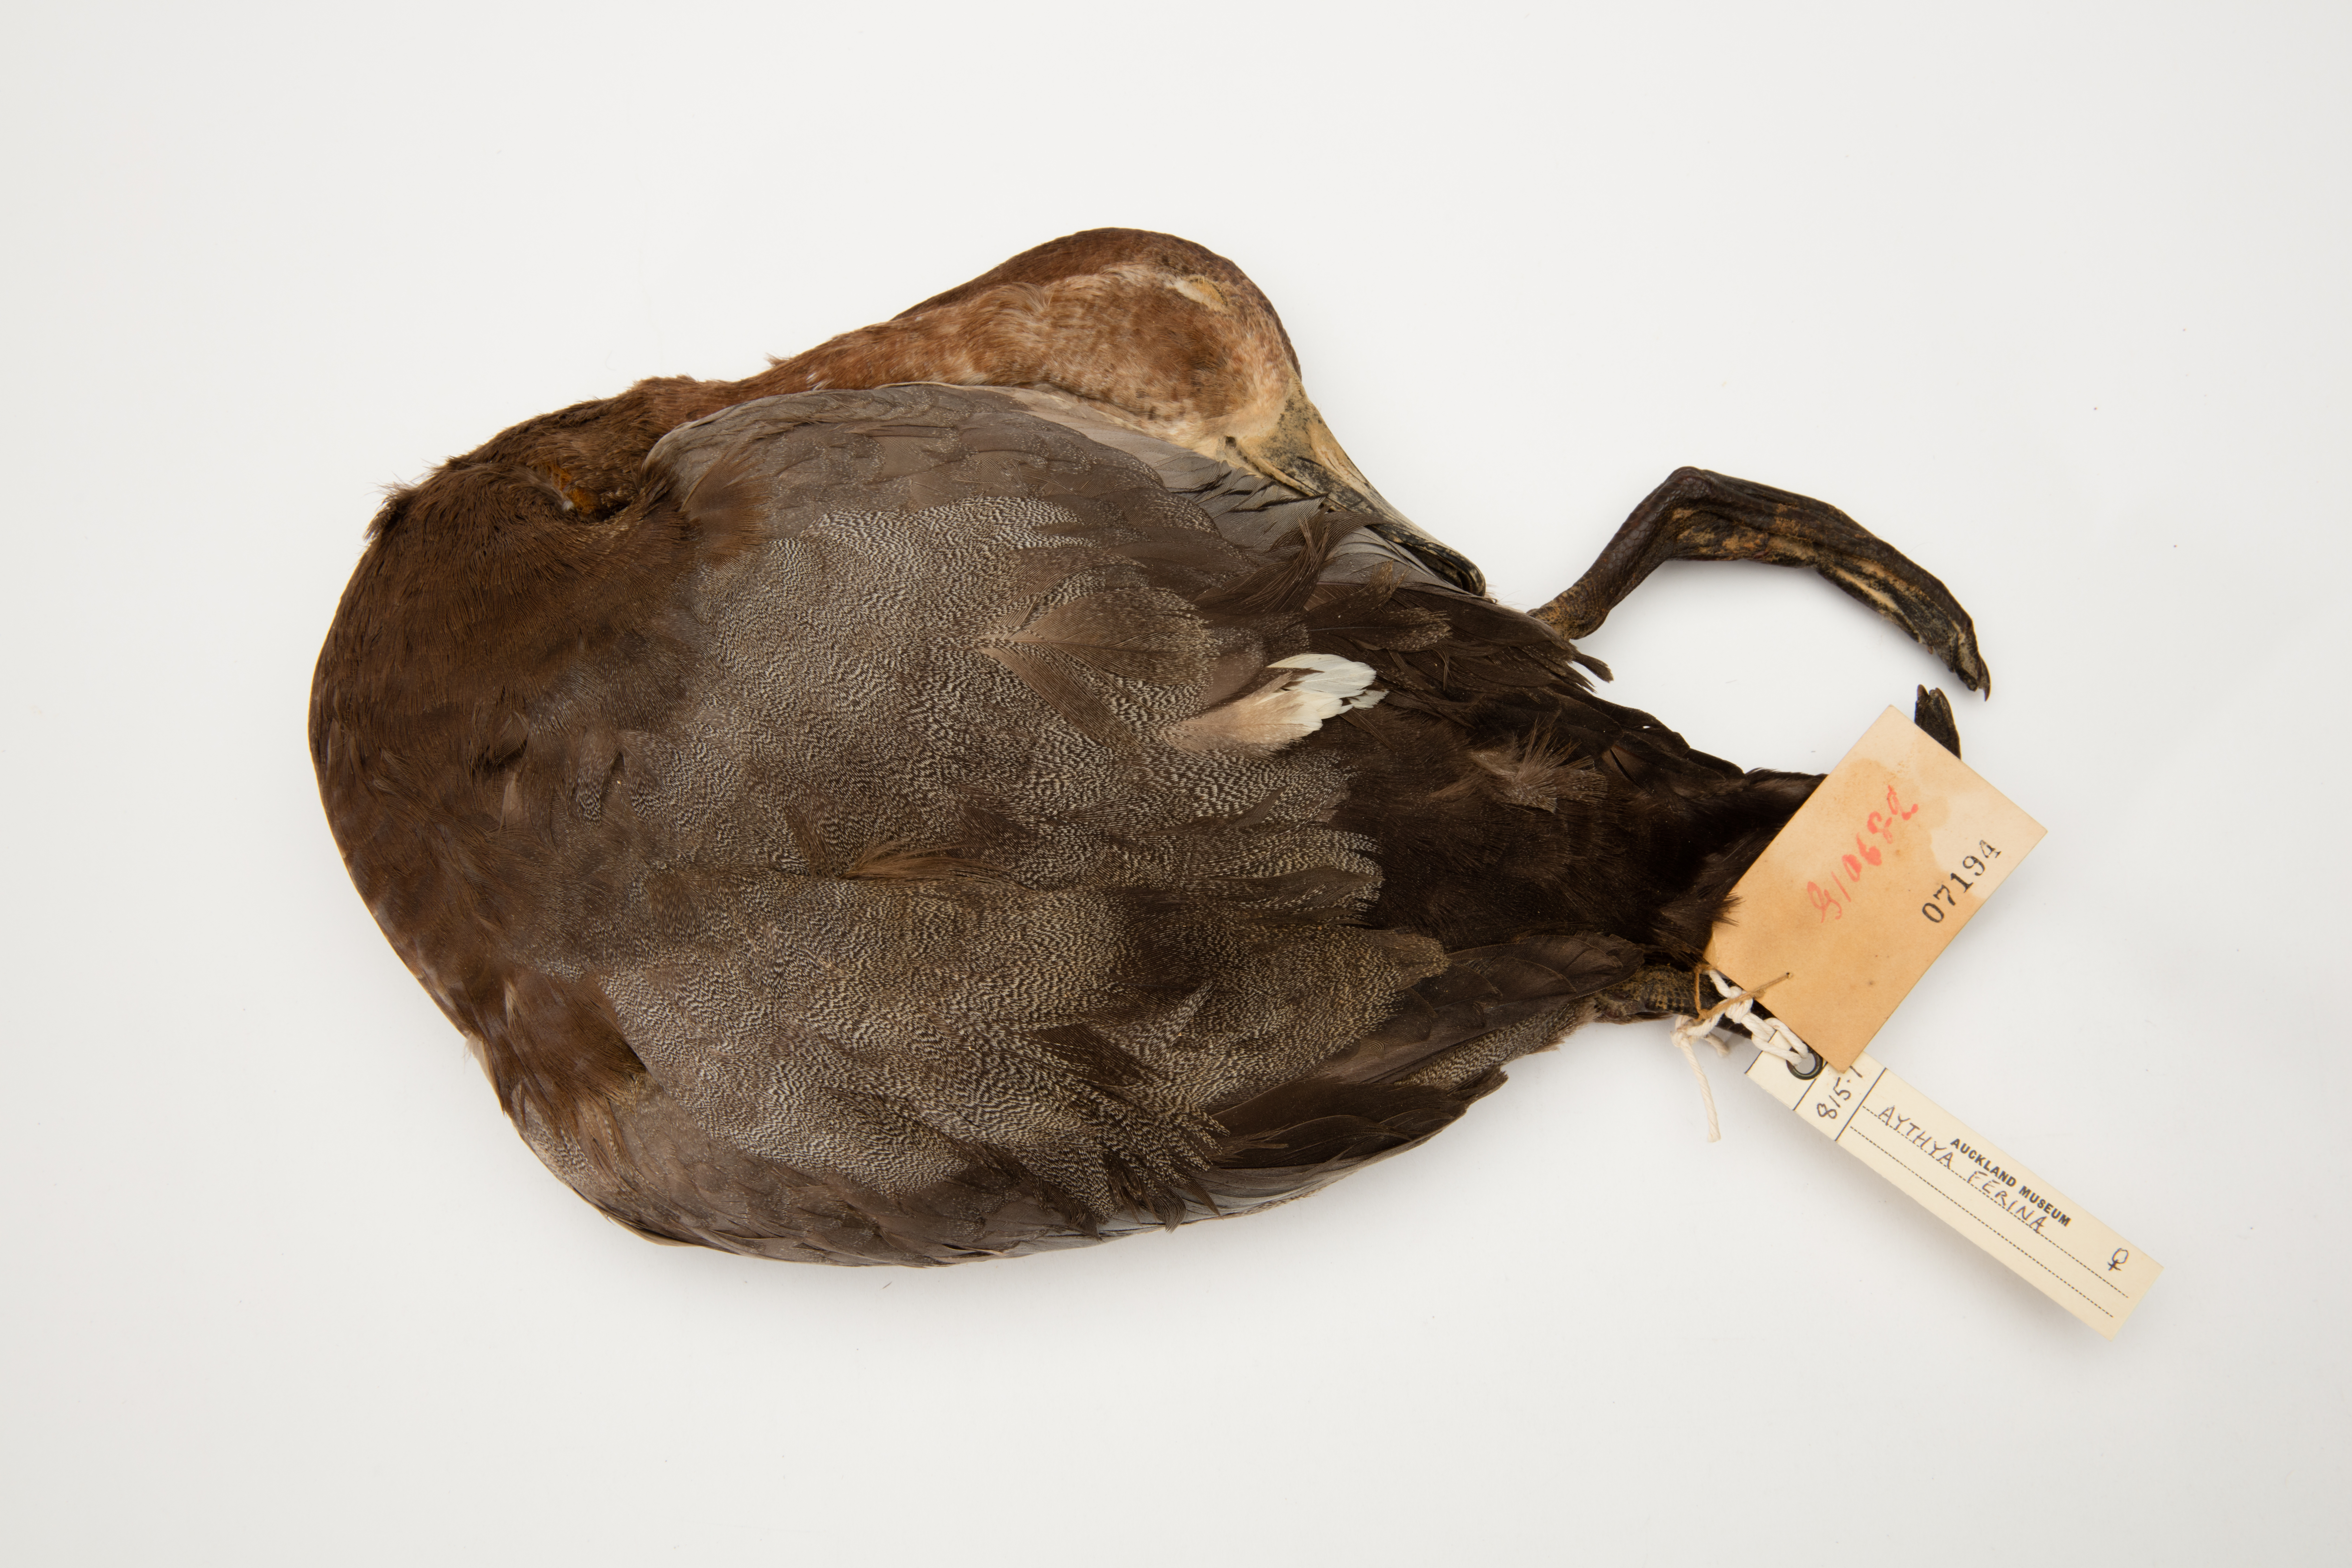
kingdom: Animalia
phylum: Chordata
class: Aves
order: Anseriformes
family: Anatidae
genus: Aythya
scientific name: Aythya ferina
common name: Common pochard
